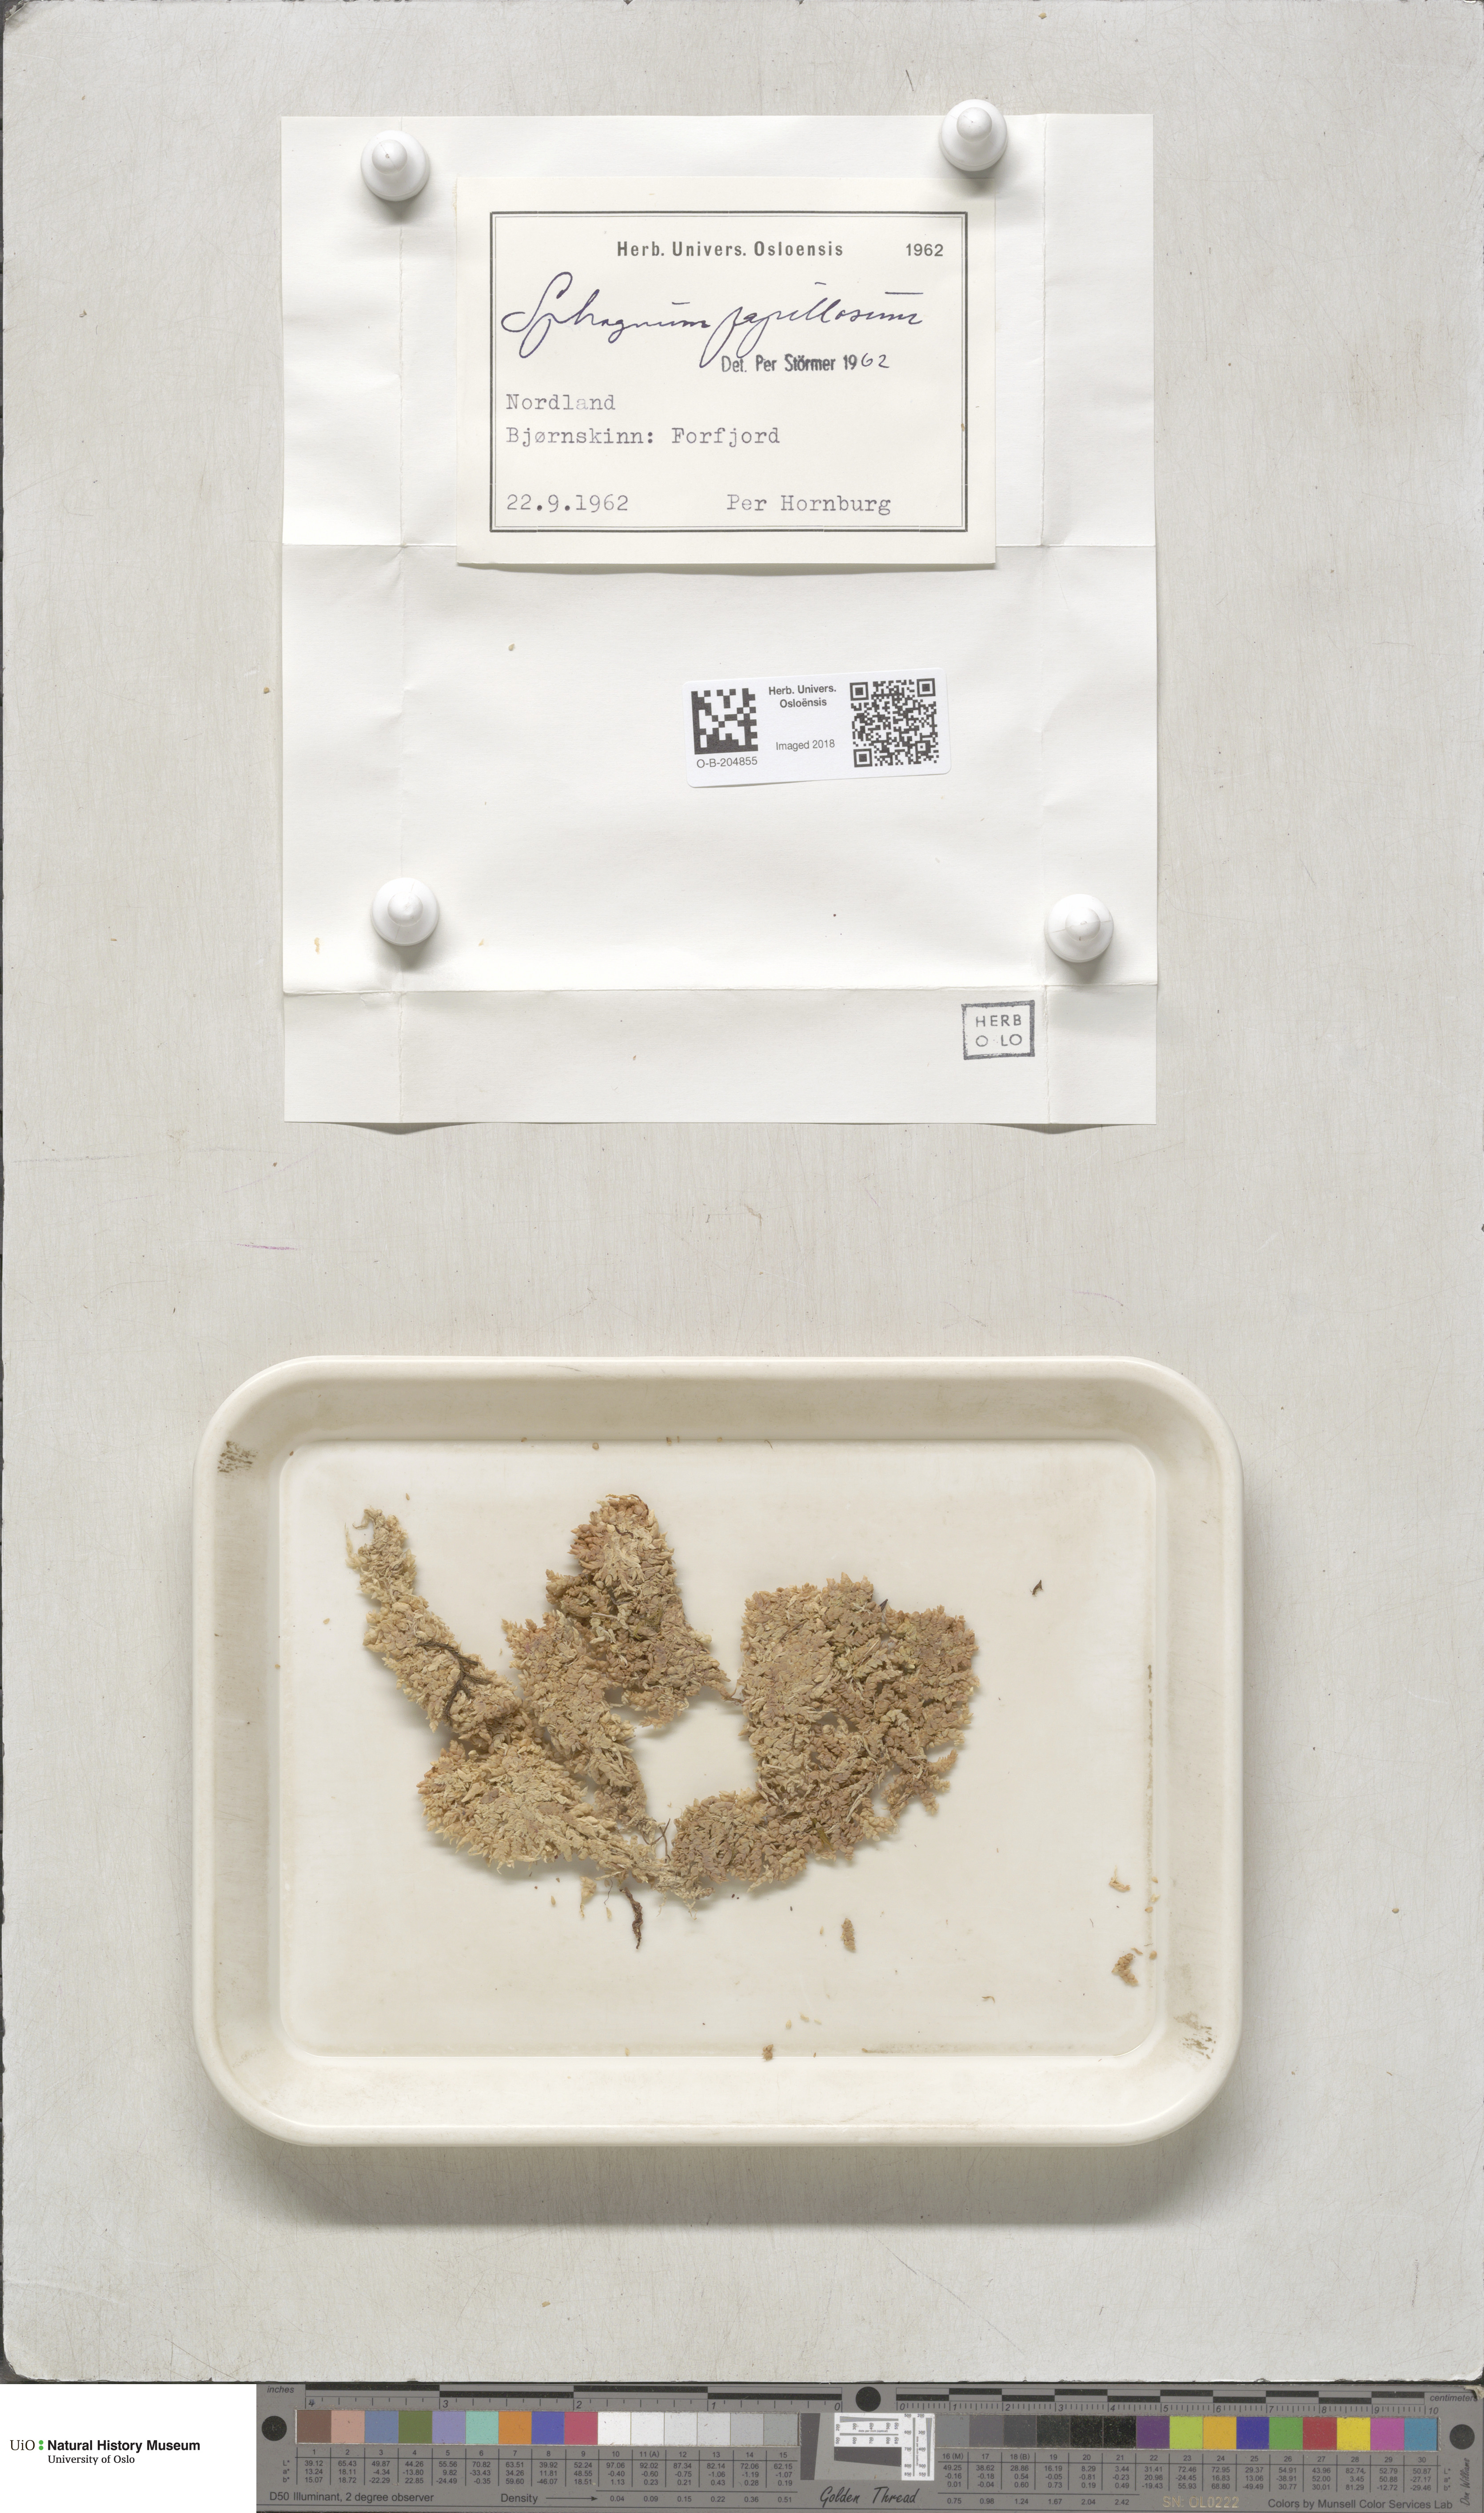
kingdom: Plantae
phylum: Bryophyta
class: Sphagnopsida
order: Sphagnales
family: Sphagnaceae
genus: Sphagnum
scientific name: Sphagnum papillosum
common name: Papillose peat moss
